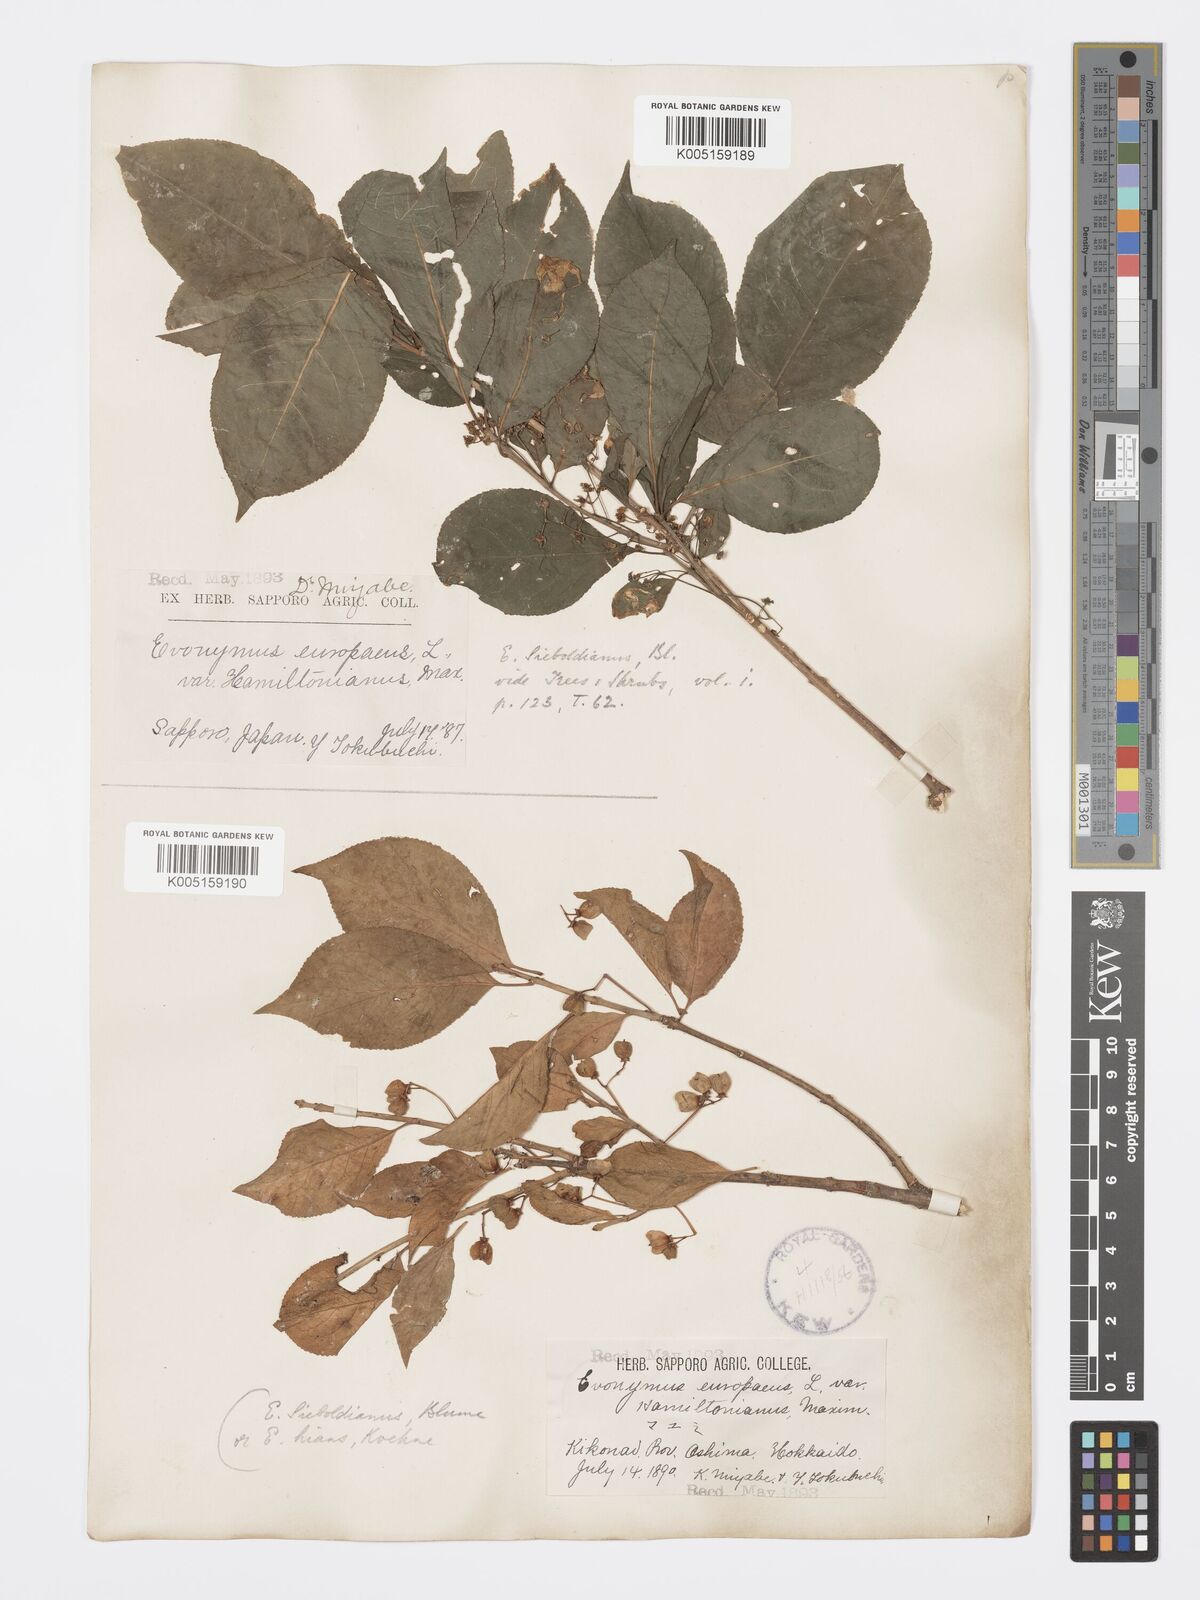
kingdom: Plantae
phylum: Tracheophyta
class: Magnoliopsida
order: Celastrales
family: Celastraceae
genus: Euonymus
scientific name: Euonymus hamiltonianus
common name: Hamilton's spindletree
